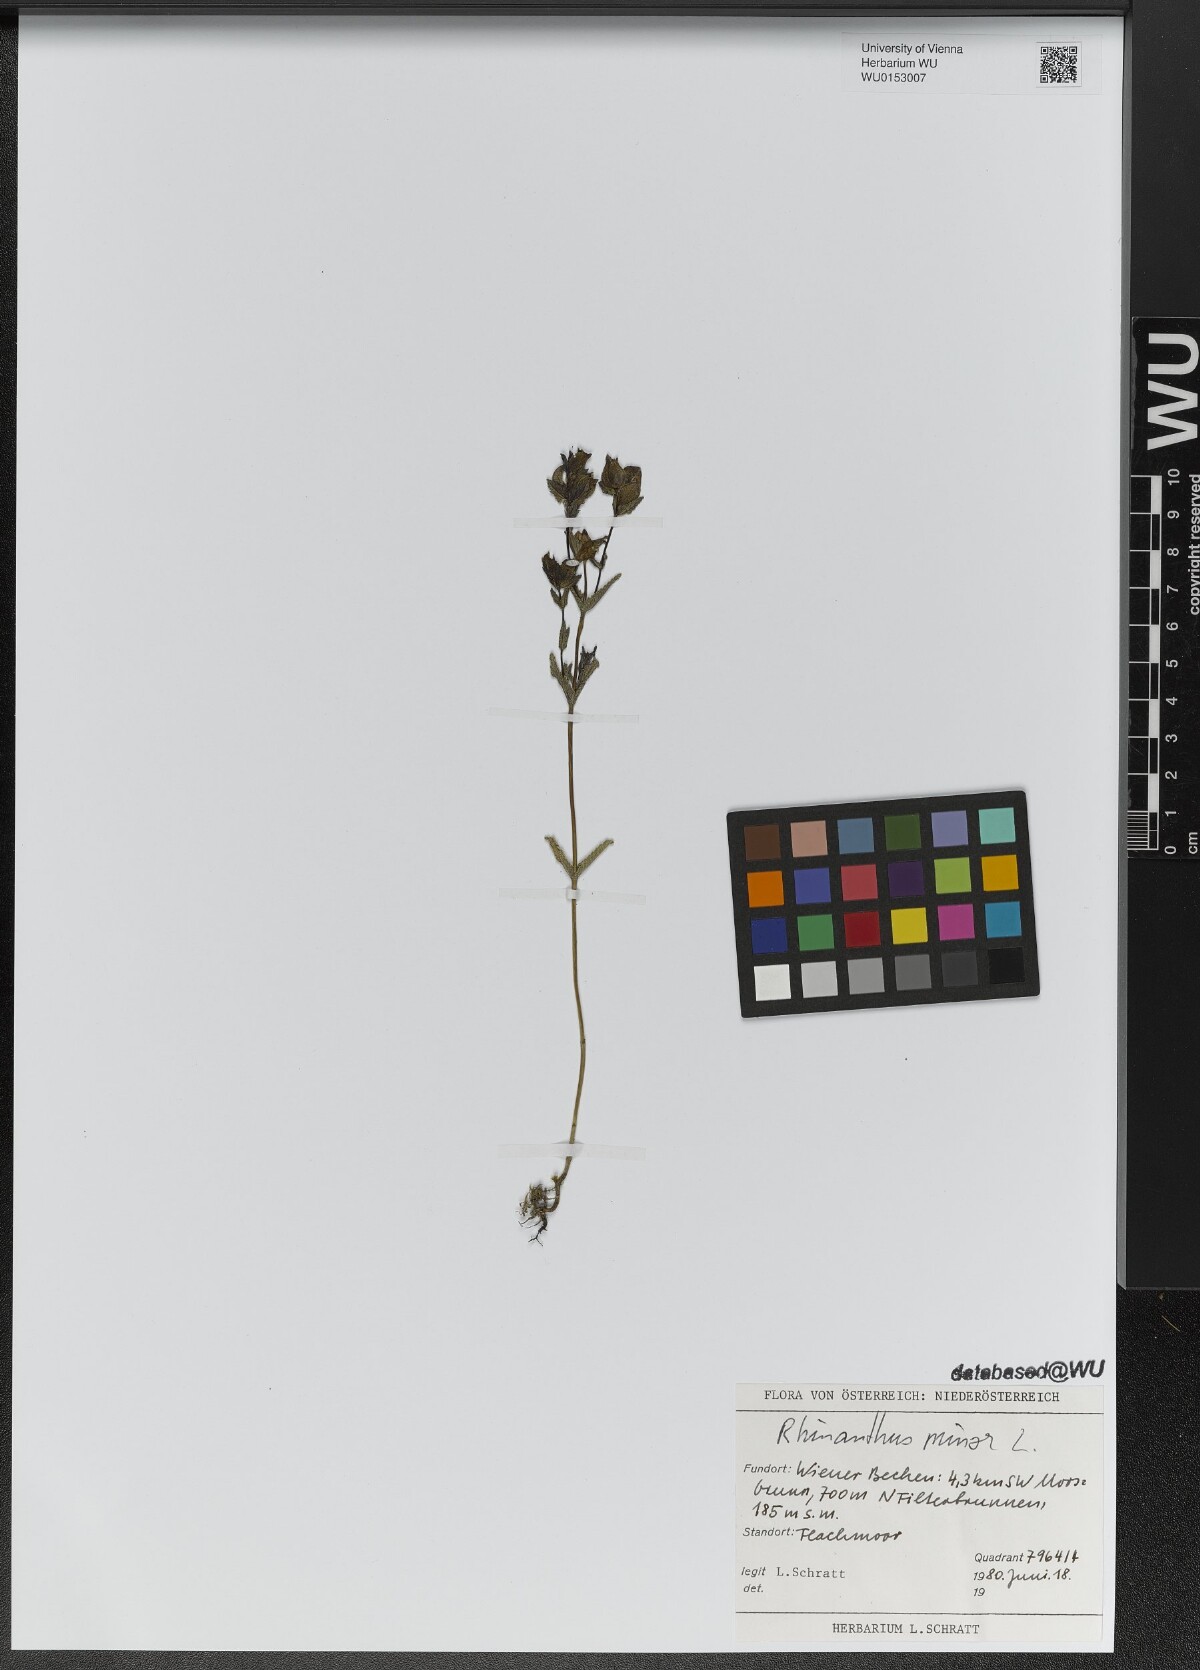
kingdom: Plantae
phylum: Tracheophyta
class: Magnoliopsida
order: Lamiales
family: Orobanchaceae
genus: Rhinanthus
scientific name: Rhinanthus minor
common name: Yellow-rattle
